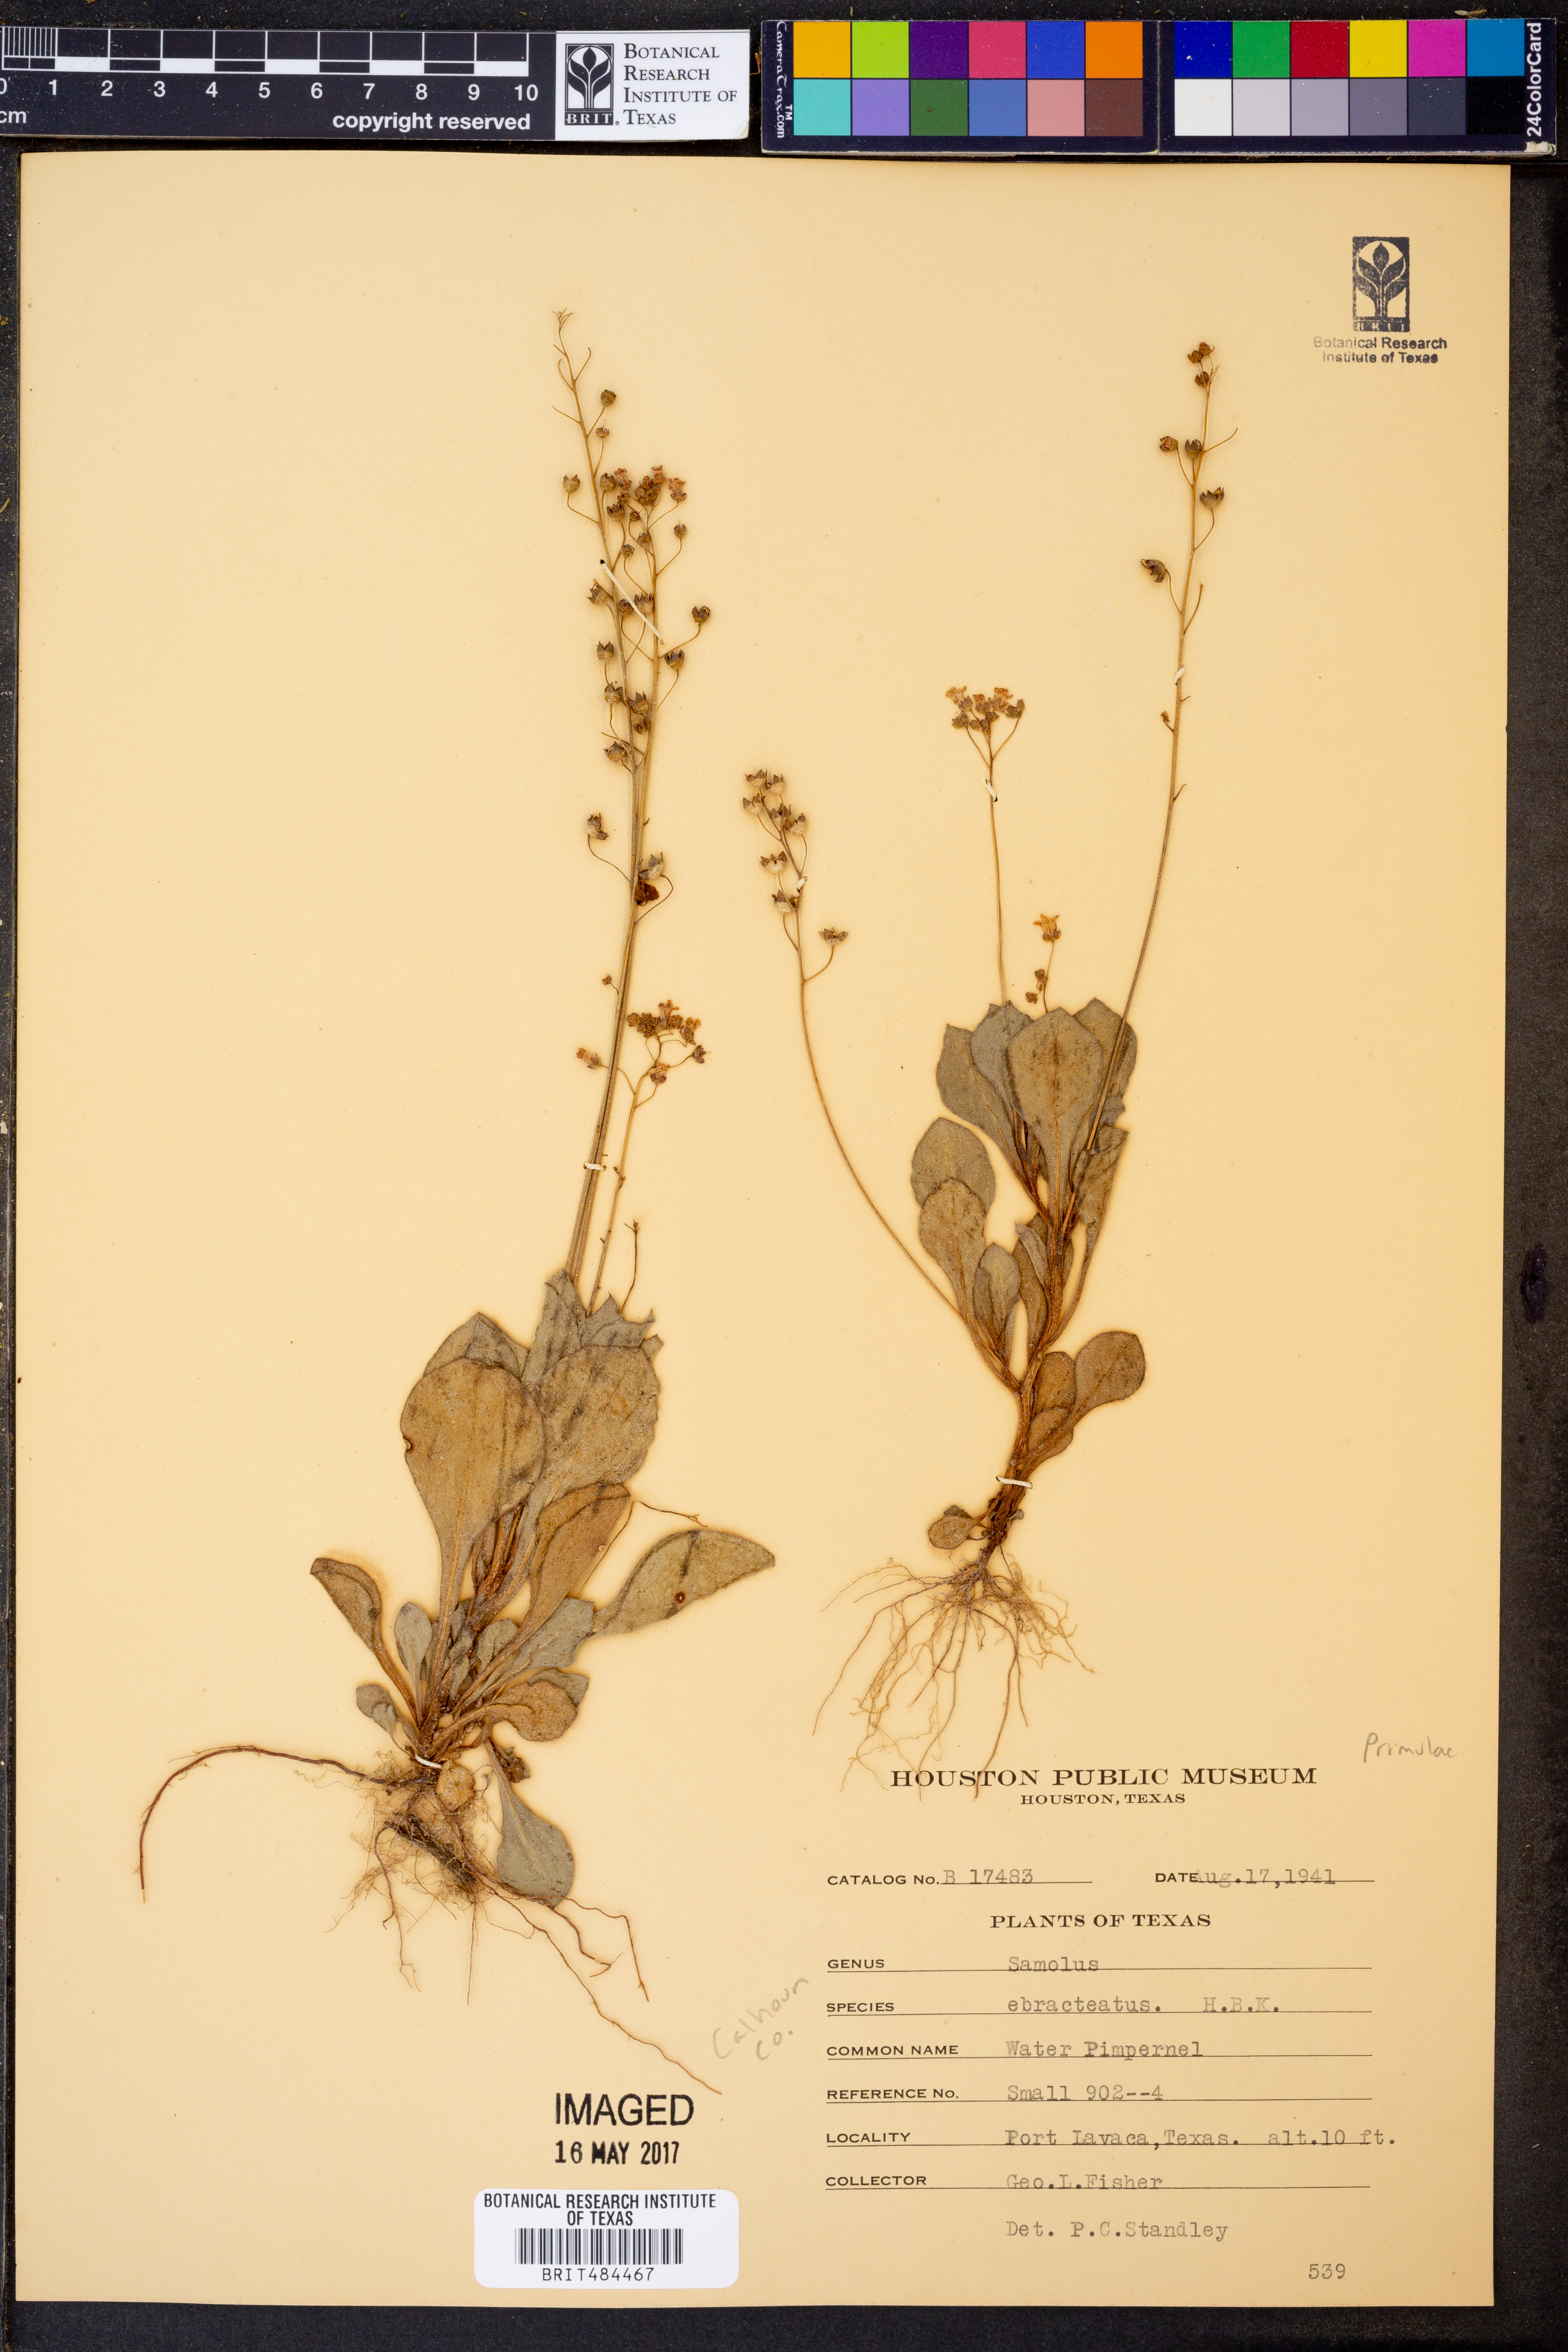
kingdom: Plantae
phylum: Tracheophyta
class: Magnoliopsida
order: Ericales
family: Primulaceae
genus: Samolus
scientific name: Samolus ebracteatus
